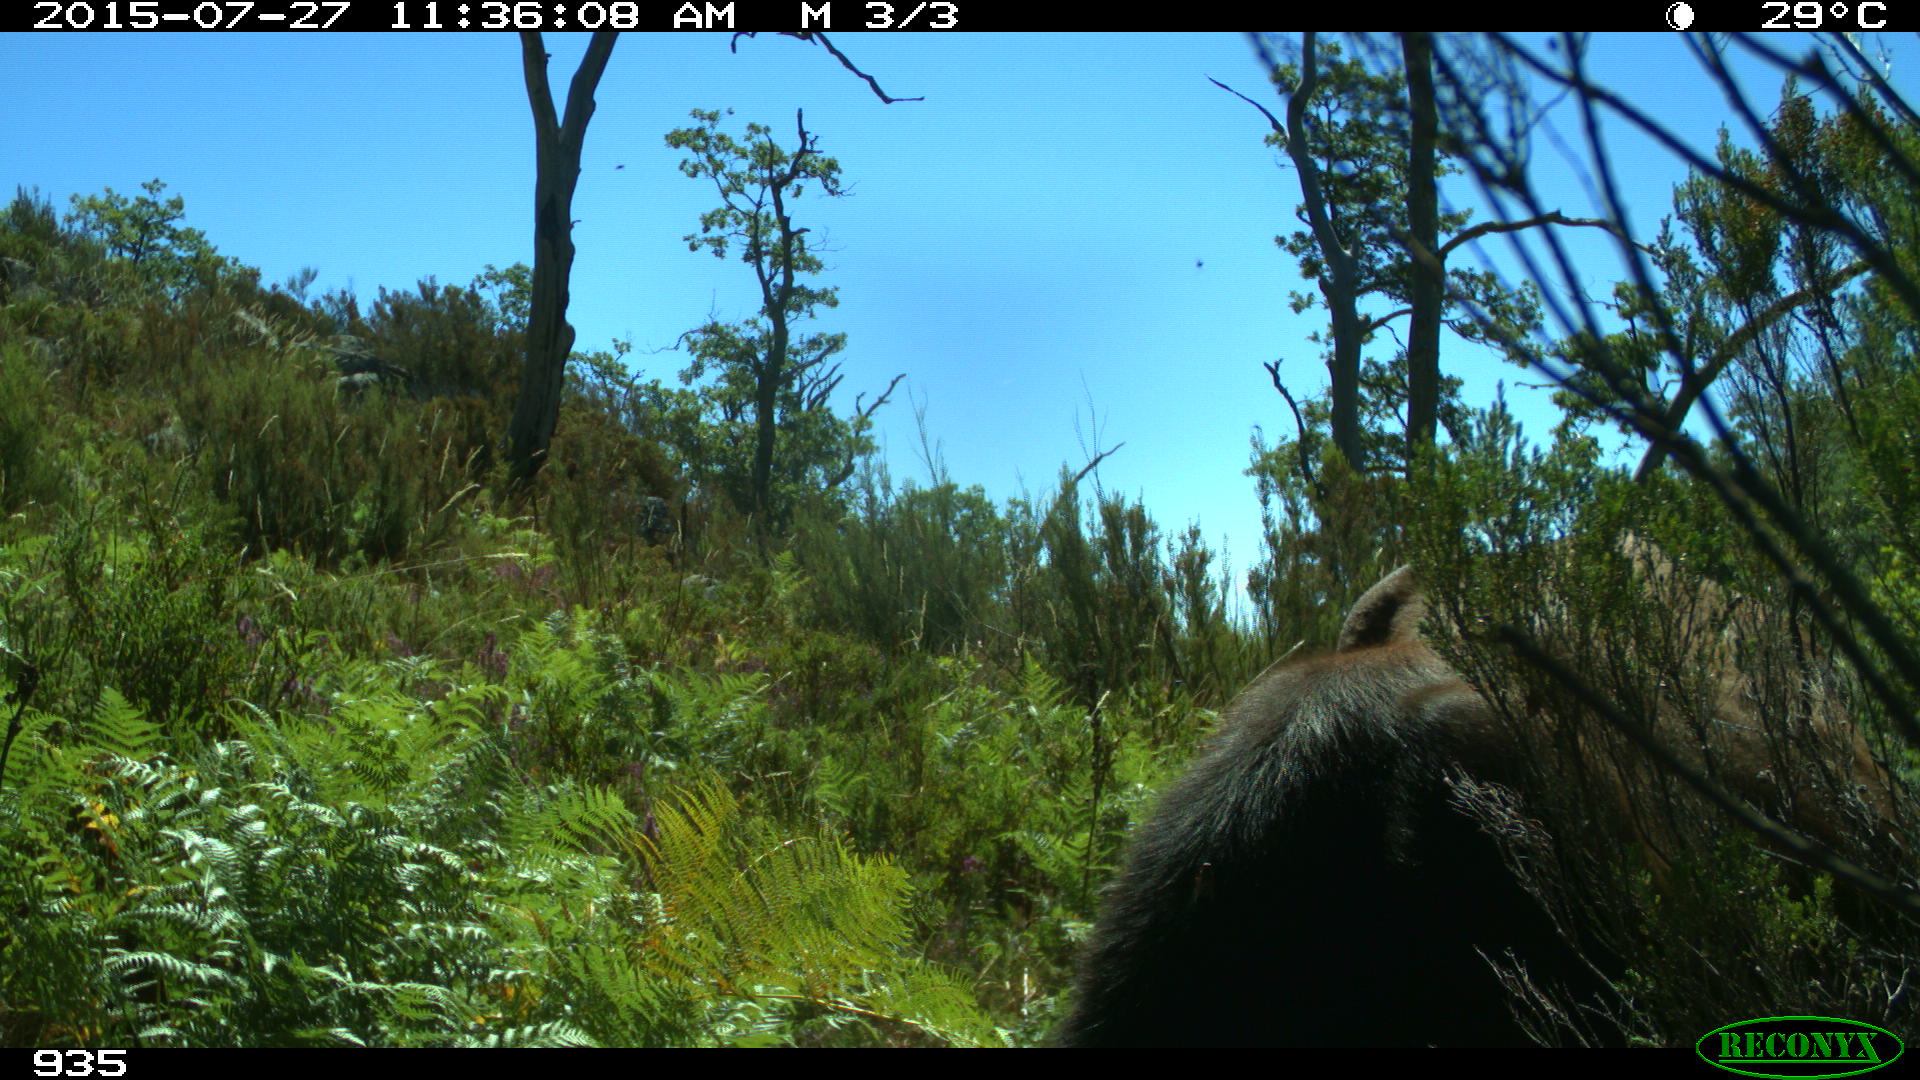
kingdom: Animalia
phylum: Chordata
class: Mammalia
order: Artiodactyla
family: Bovidae
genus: Bos
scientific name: Bos taurus
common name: Domesticated cattle
